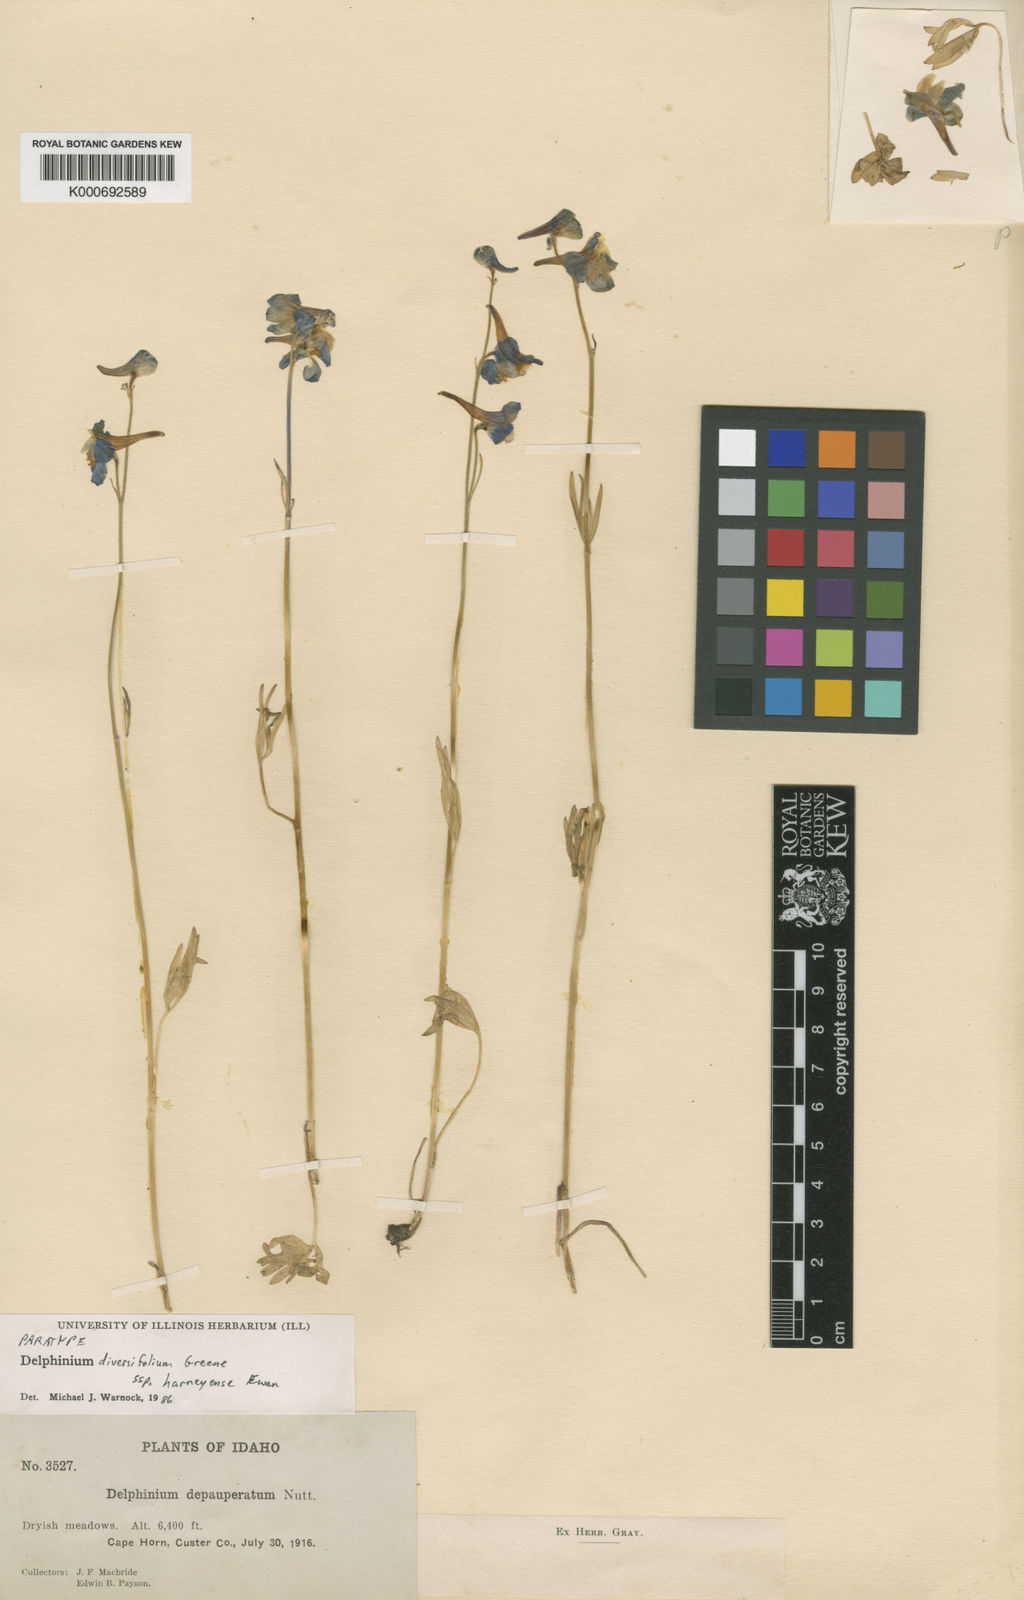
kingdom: Plantae
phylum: Tracheophyta
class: Magnoliopsida
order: Ranunculales
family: Ranunculaceae
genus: Delphinium
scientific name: Delphinium depauperatum
